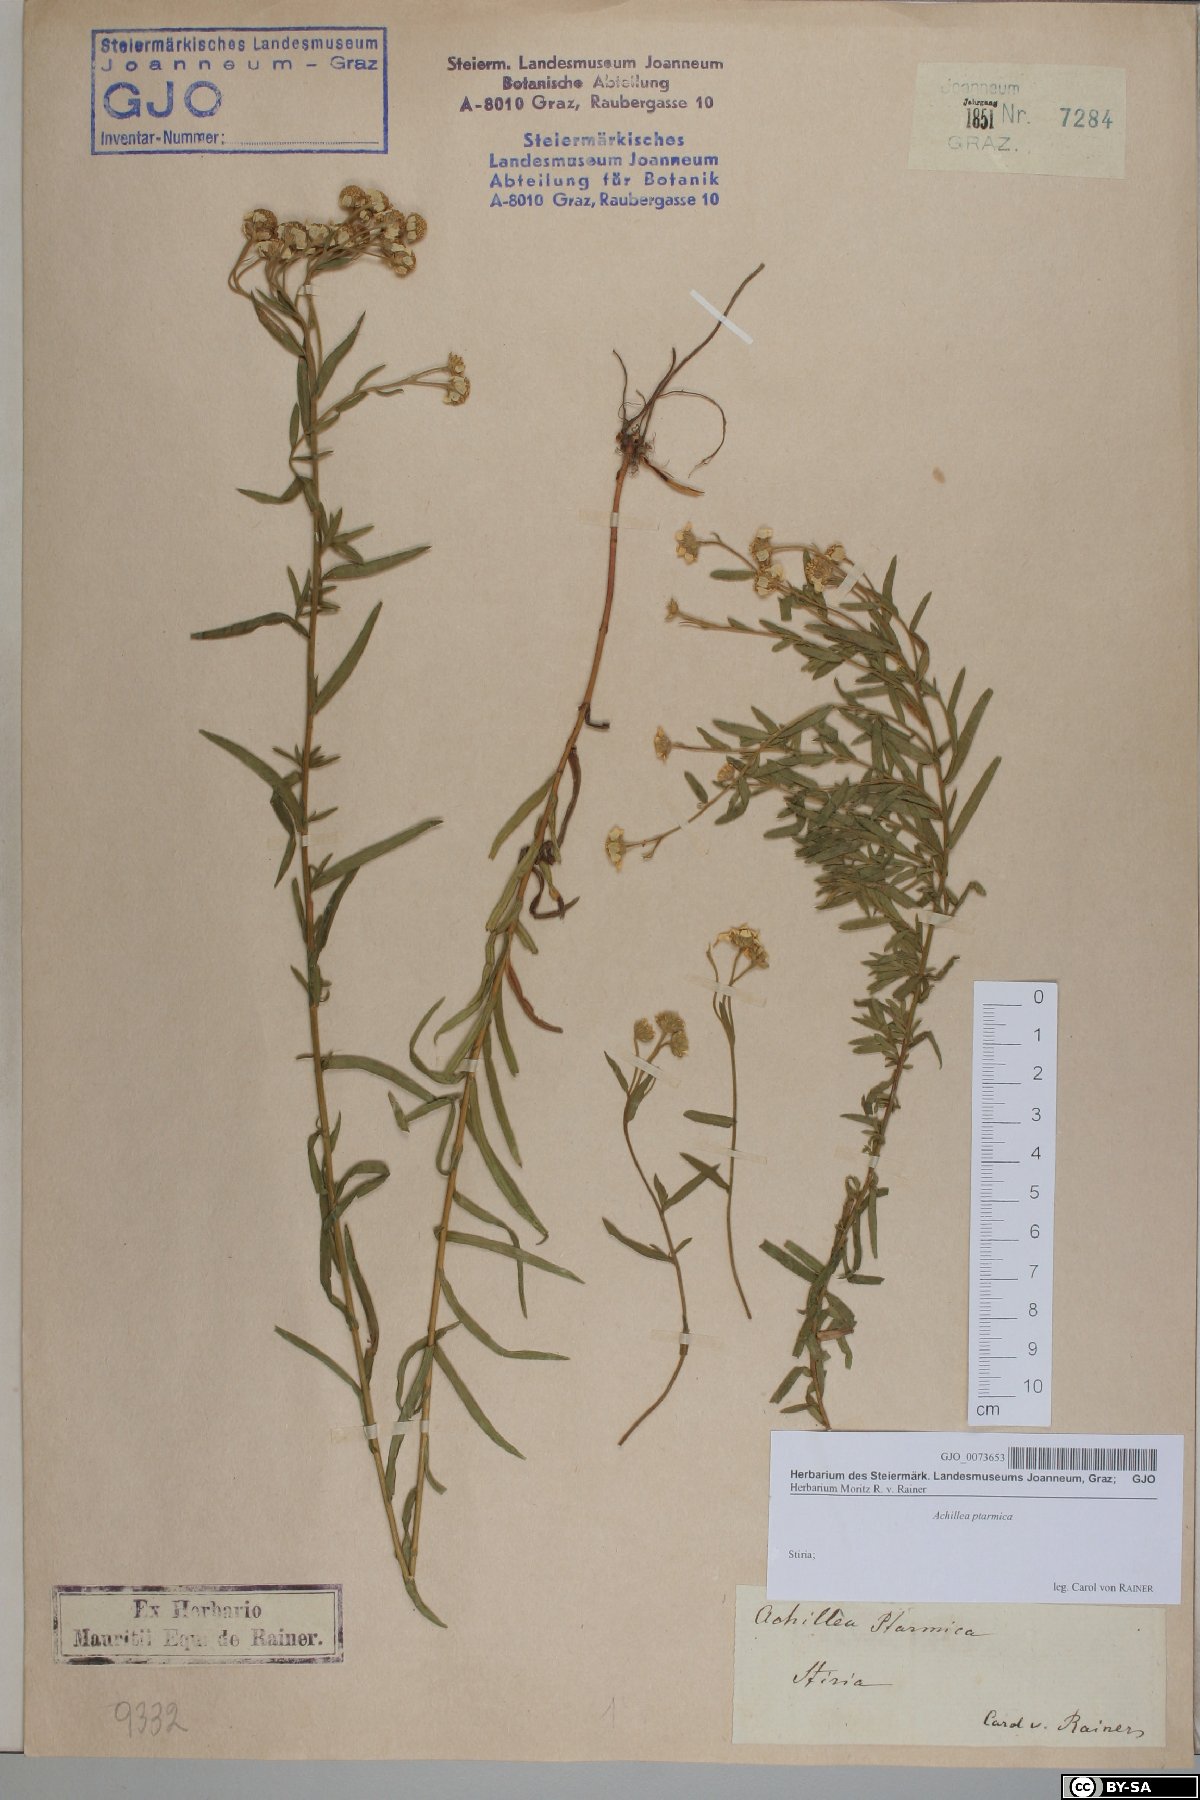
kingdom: Plantae
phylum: Tracheophyta
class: Magnoliopsida
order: Asterales
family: Asteraceae
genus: Achillea
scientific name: Achillea ptarmica
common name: Sneezeweed
